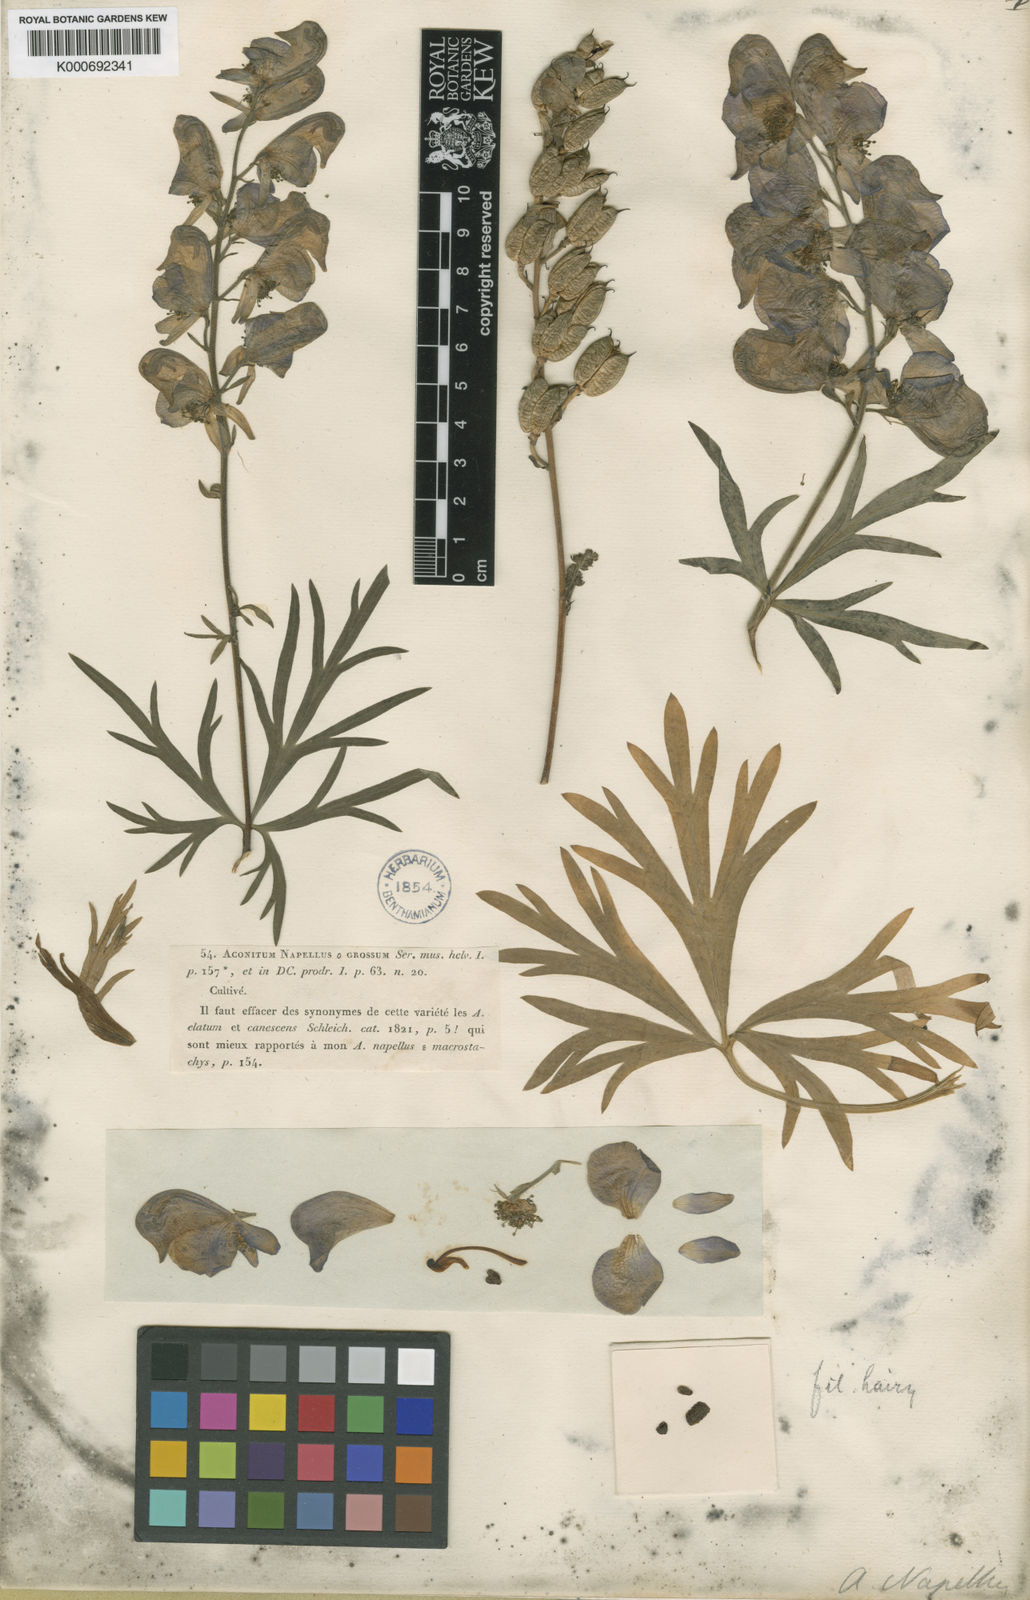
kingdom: Plantae
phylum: Tracheophyta
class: Magnoliopsida
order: Ranunculales
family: Ranunculaceae
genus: Aconitum
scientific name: Aconitum napellus
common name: Garden monkshood
